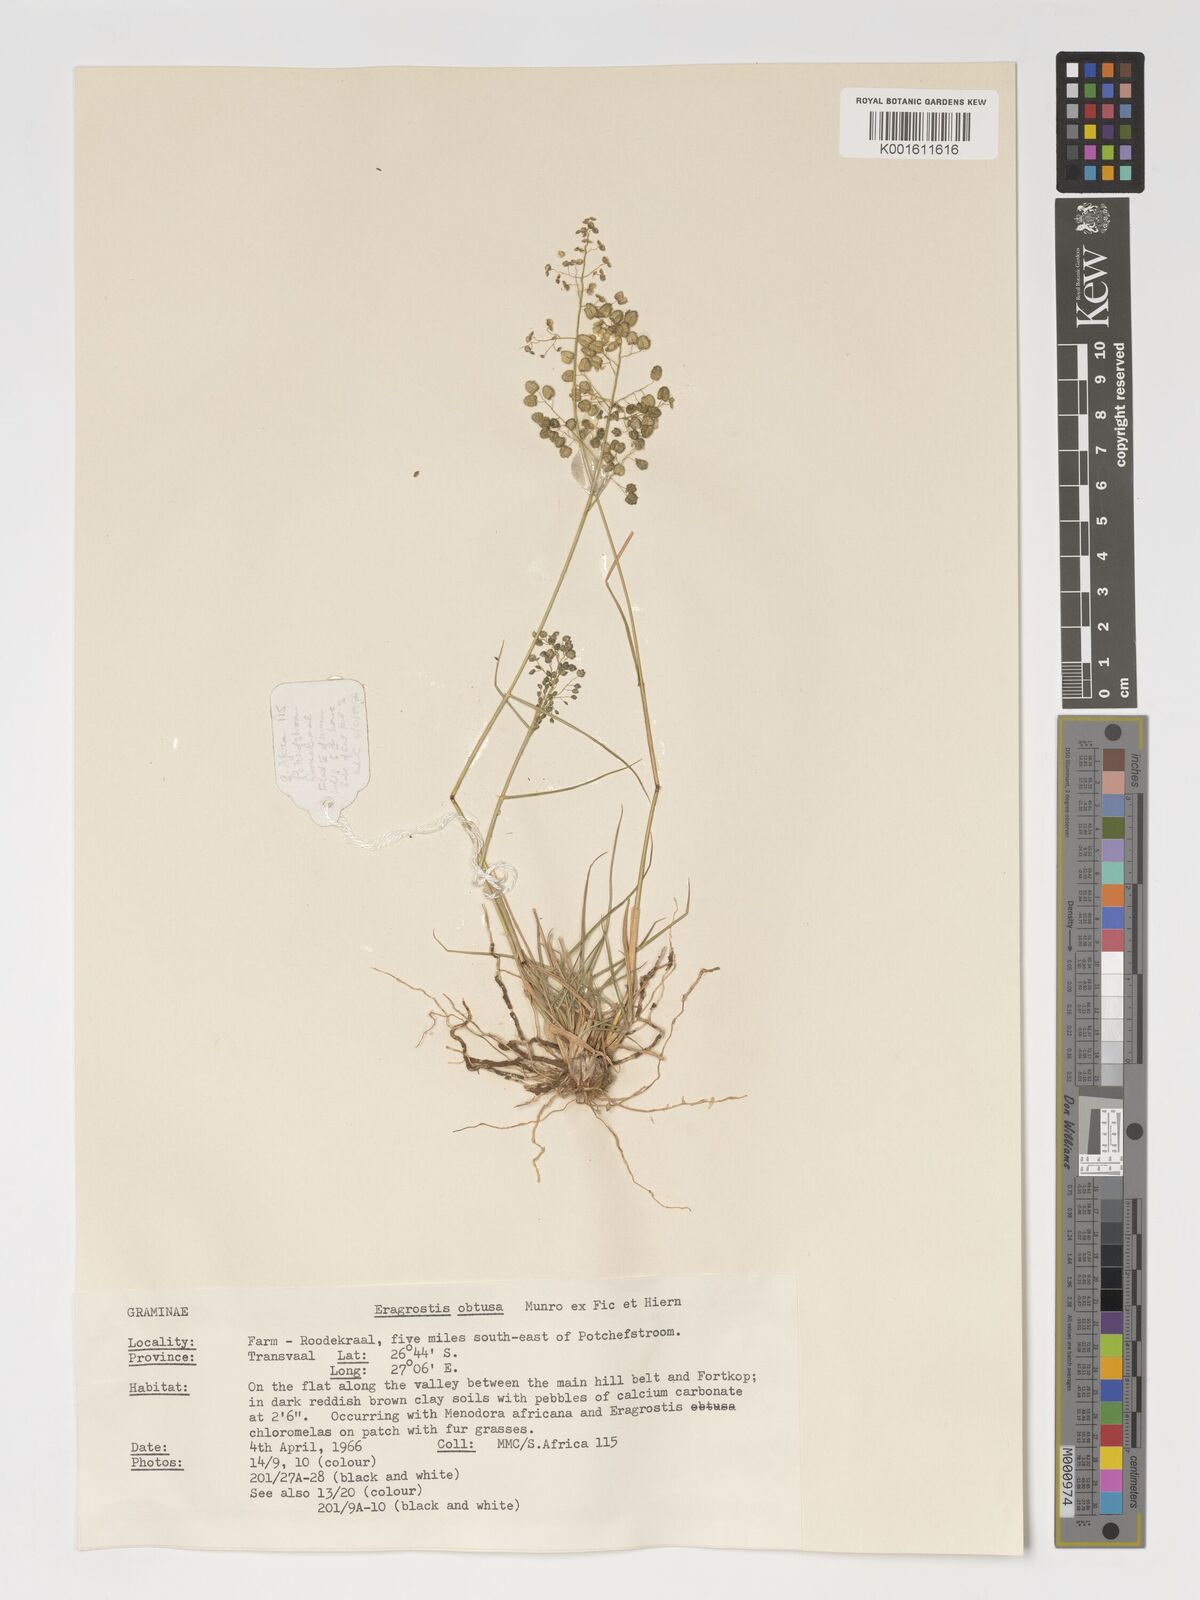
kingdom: Plantae
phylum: Tracheophyta
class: Liliopsida
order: Poales
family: Poaceae
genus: Eragrostis
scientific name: Eragrostis obtusa
